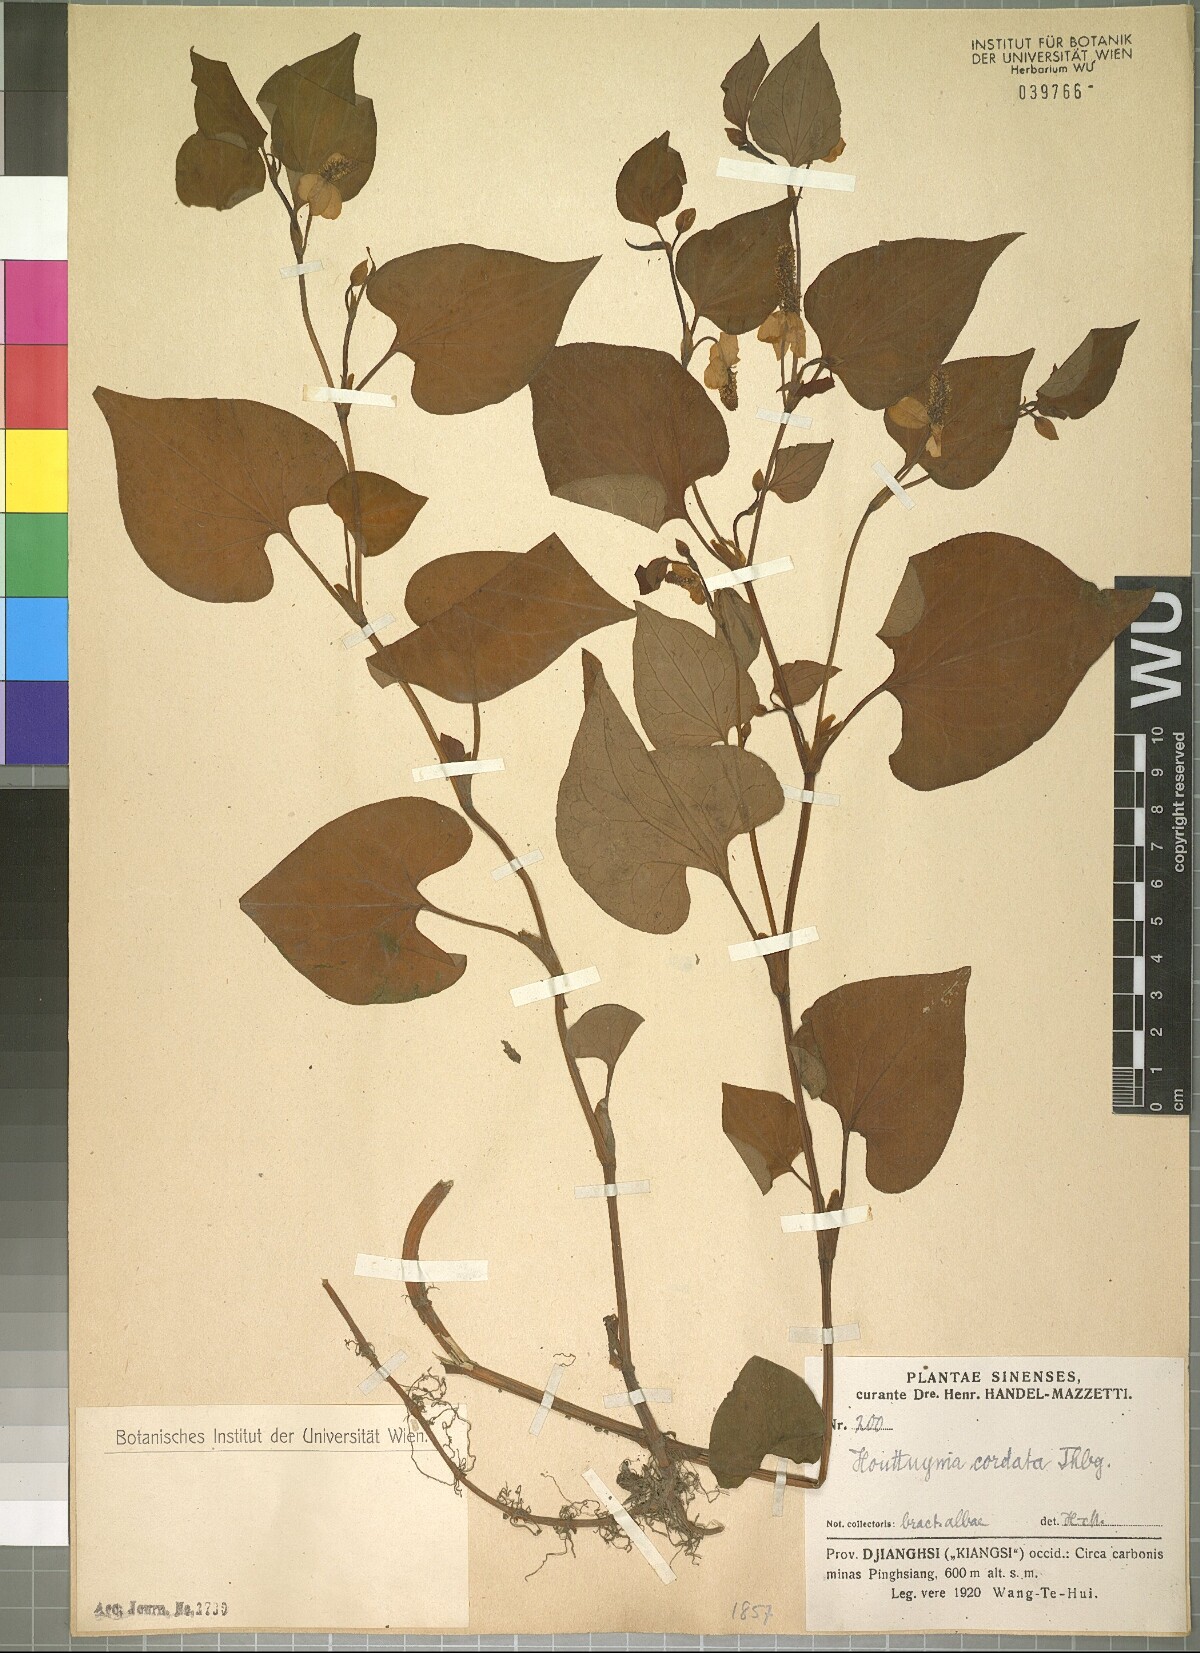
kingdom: Plantae
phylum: Tracheophyta
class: Magnoliopsida
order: Piperales
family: Saururaceae
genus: Houttuynia
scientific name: Houttuynia cordata
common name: Chameleon
